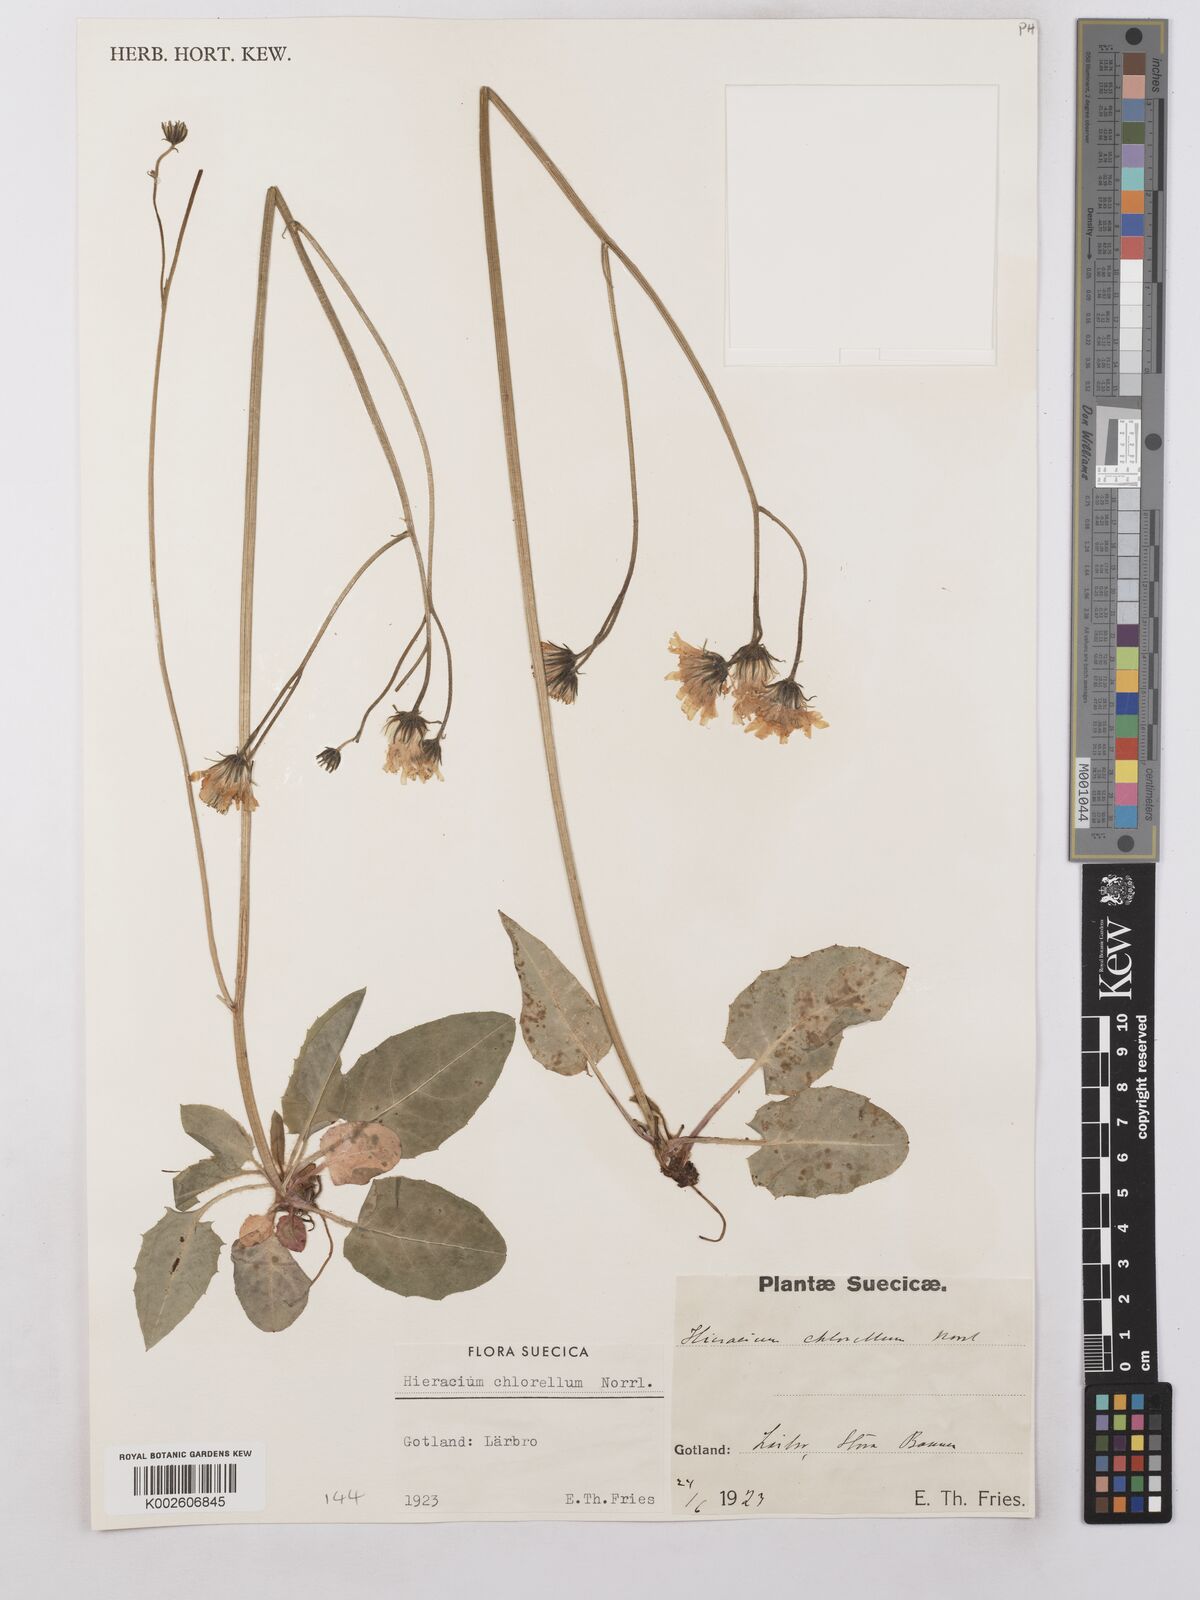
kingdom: Plantae
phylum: Tracheophyta
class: Magnoliopsida
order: Asterales
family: Asteraceae
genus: Hieracium
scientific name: Hieracium chlorellum
